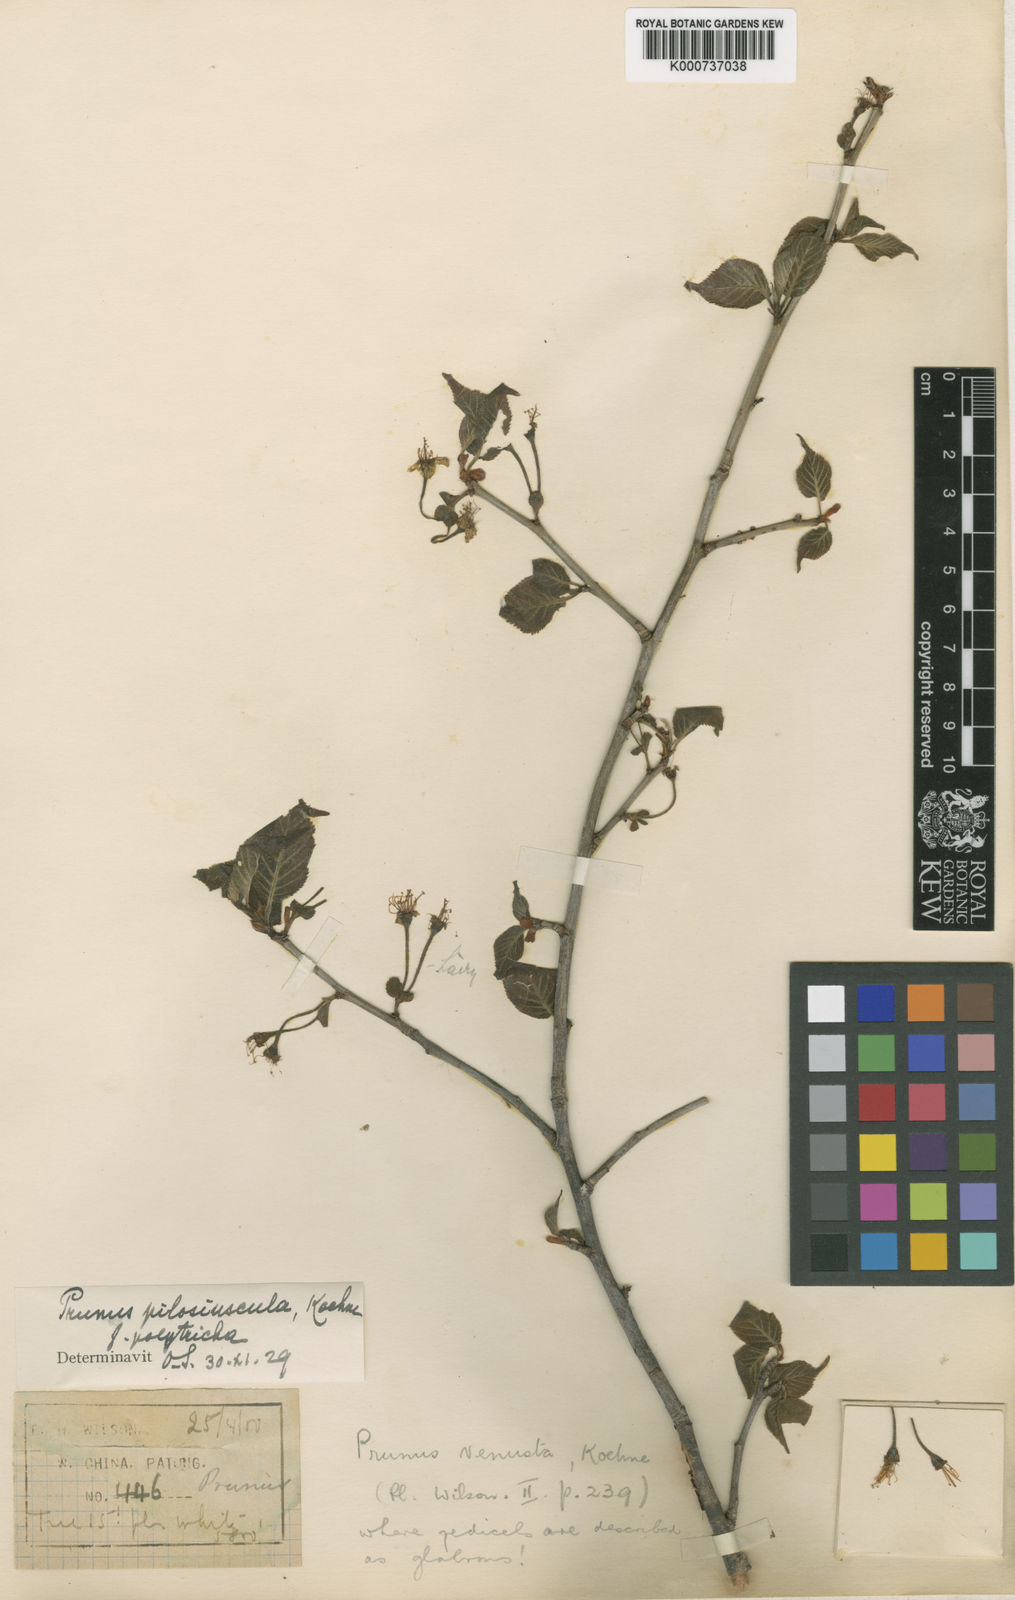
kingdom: Plantae
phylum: Tracheophyta
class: Magnoliopsida
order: Rosales
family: Rosaceae
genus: Prunus
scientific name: Prunus clarofolia
